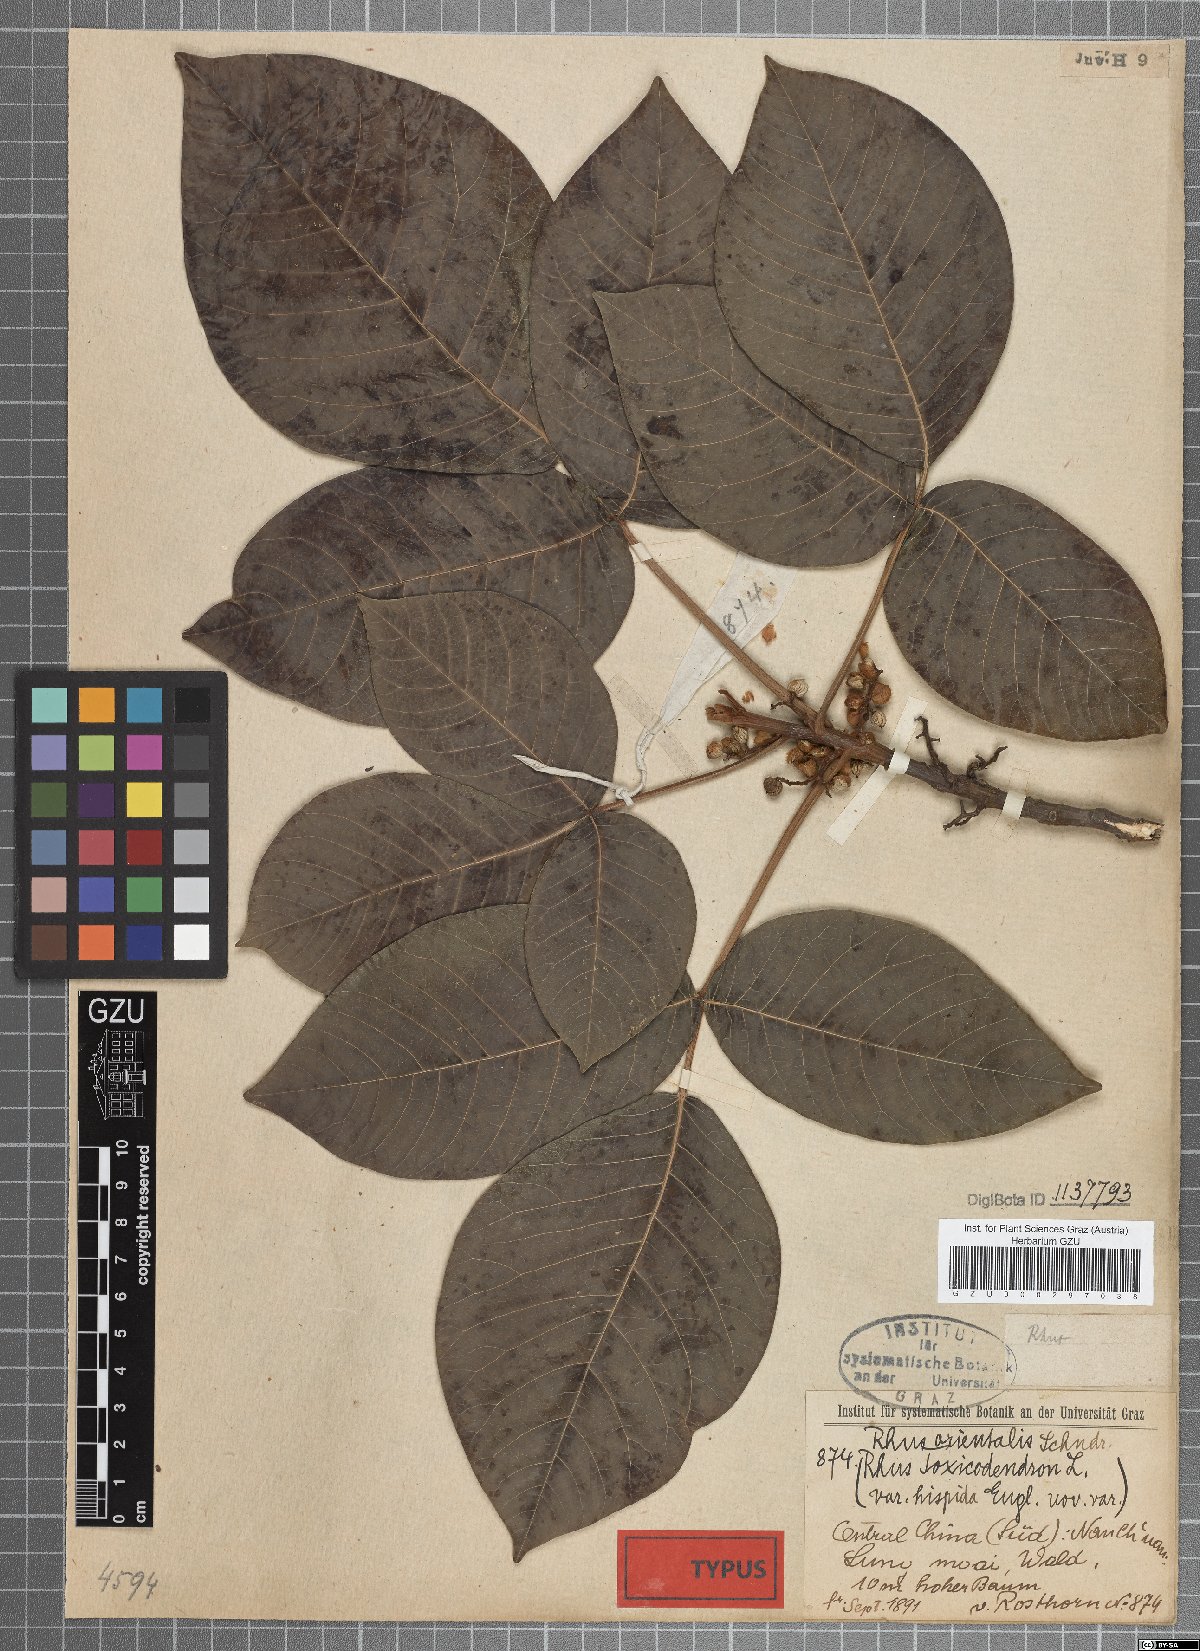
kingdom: Plantae
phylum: Tracheophyta
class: Magnoliopsida
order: Sapindales
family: Anacardiaceae
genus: Toxicodendron
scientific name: Toxicodendron orientale
